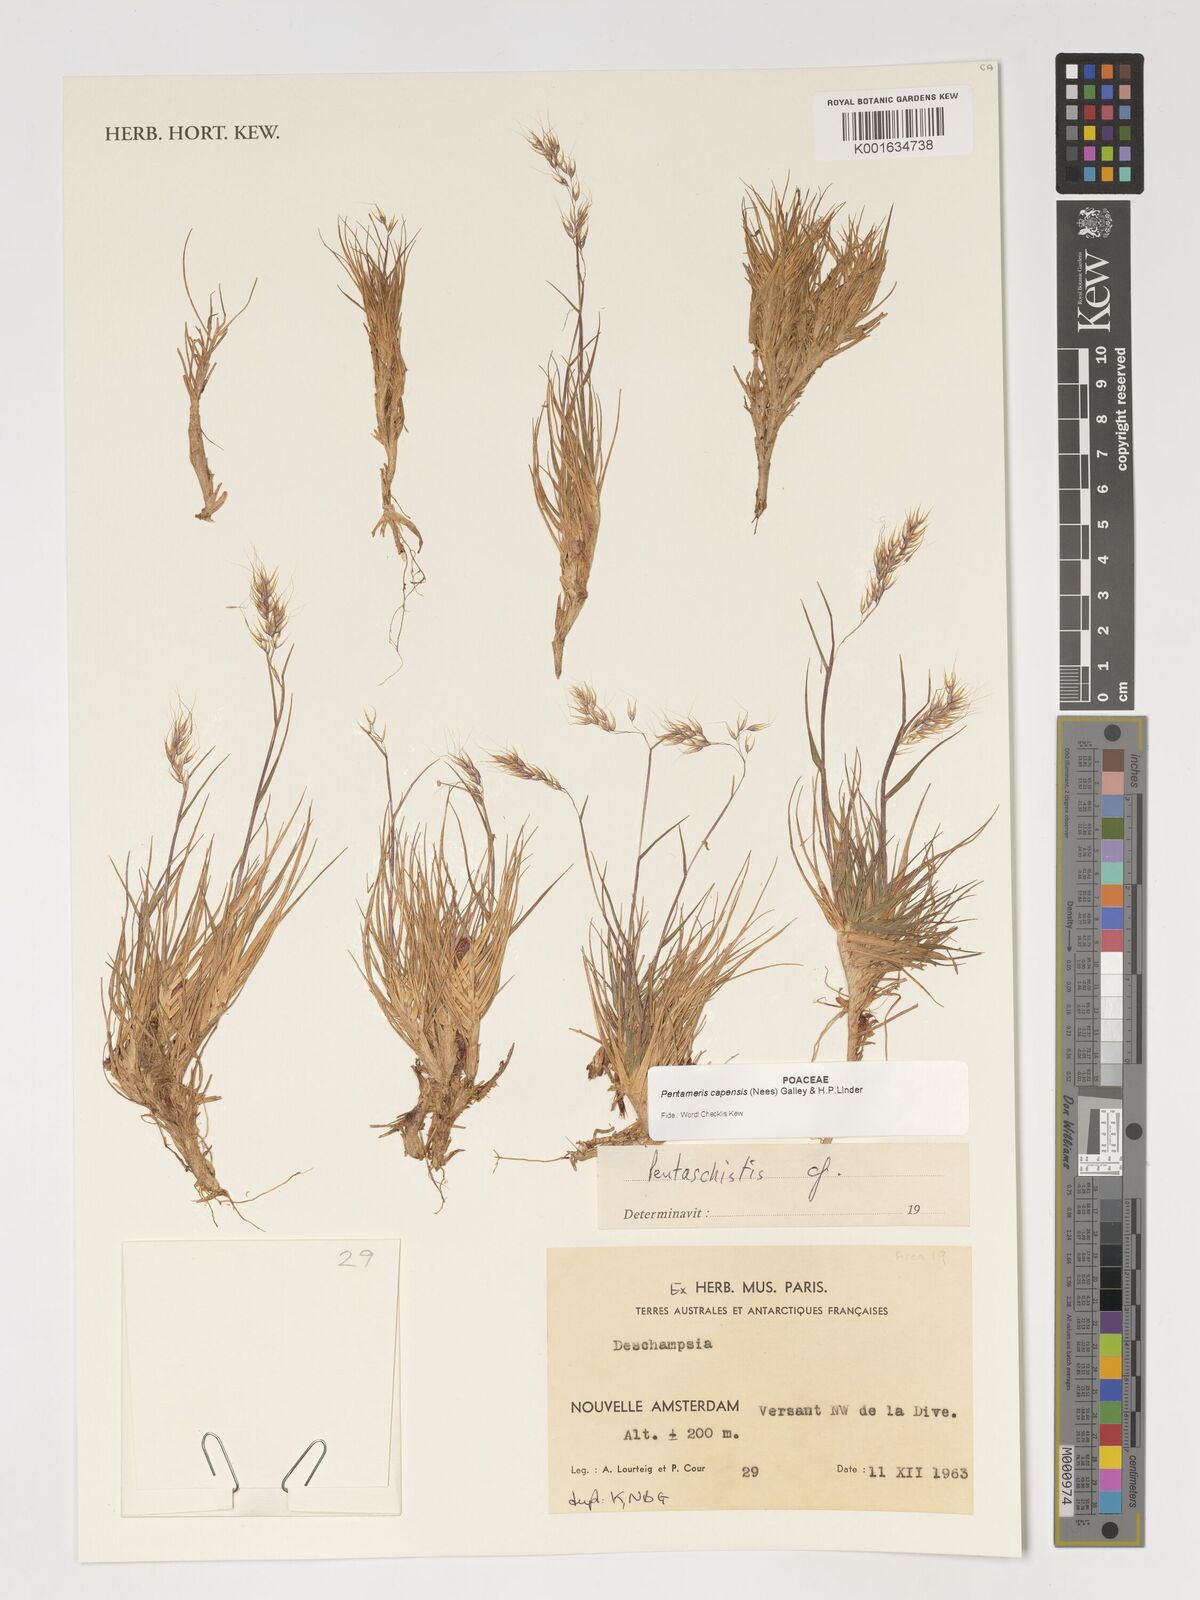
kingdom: Plantae
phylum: Tracheophyta
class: Liliopsida
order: Poales
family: Poaceae
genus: Pentameris
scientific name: Pentameris capensis
